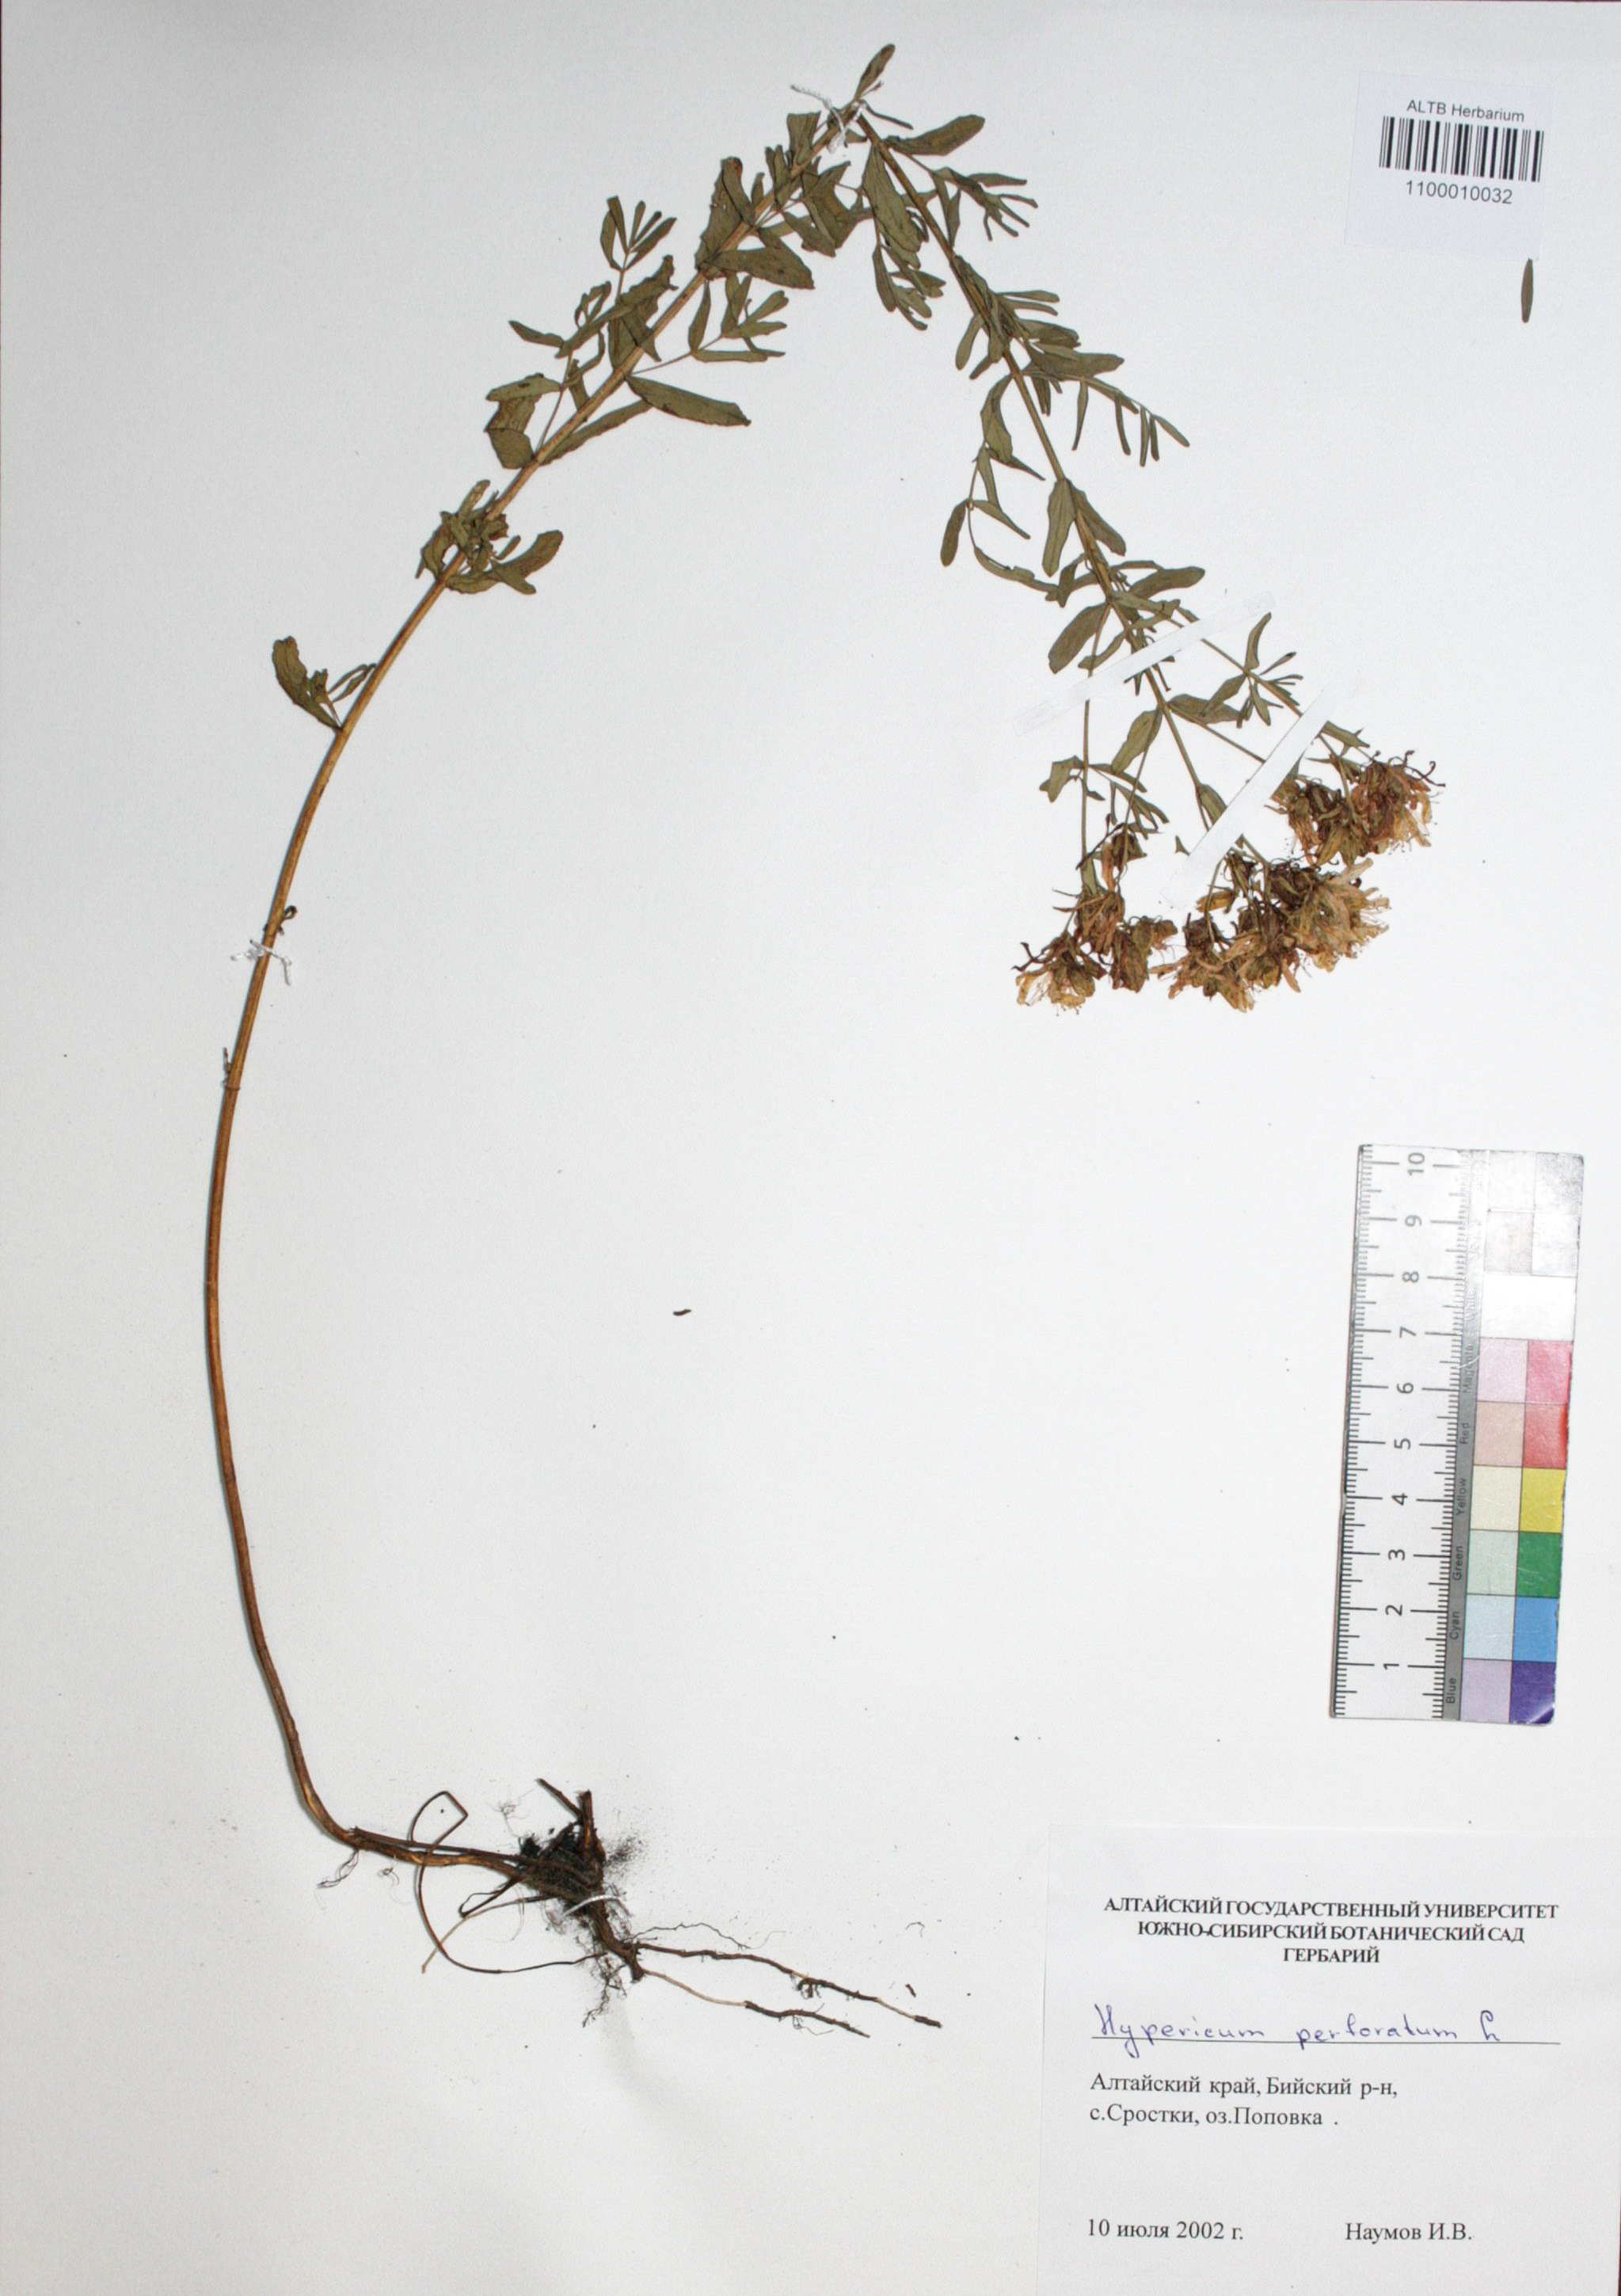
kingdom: Plantae
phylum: Tracheophyta
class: Magnoliopsida
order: Malpighiales
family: Hypericaceae
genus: Hypericum
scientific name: Hypericum perforatum
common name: Common st. johnswort
